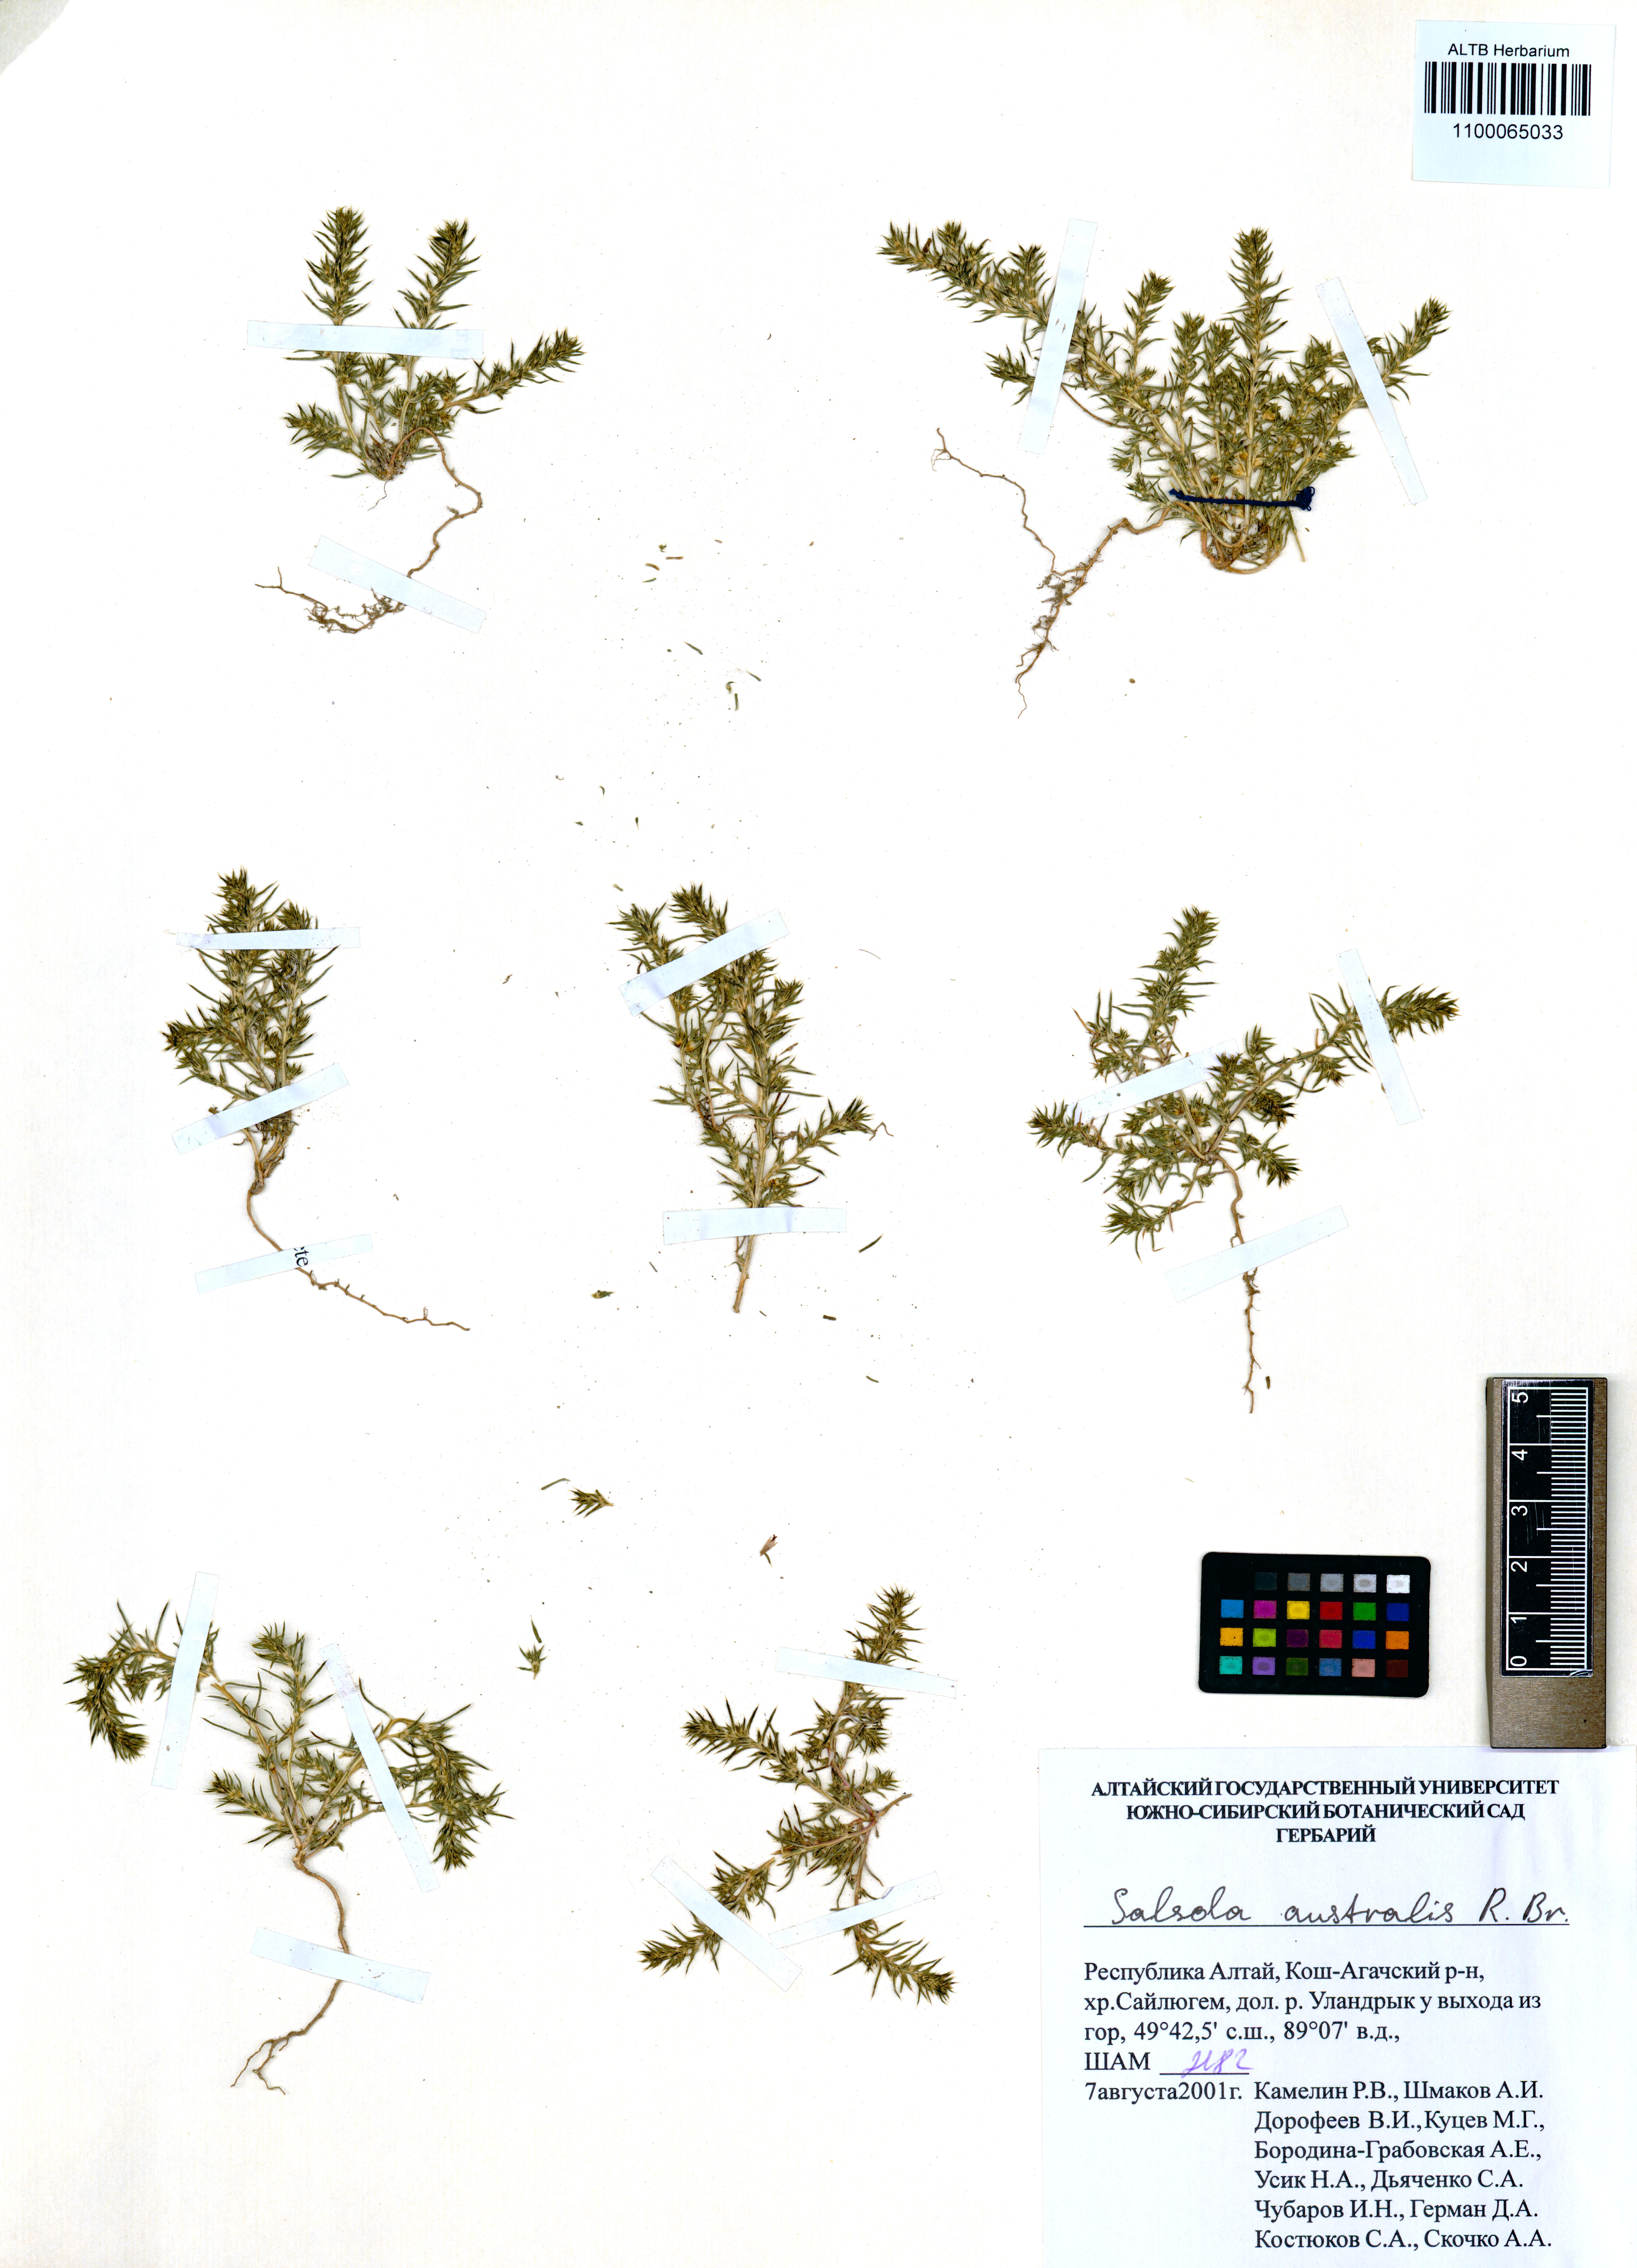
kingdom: Plantae
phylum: Tracheophyta
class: Magnoliopsida
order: Caryophyllales
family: Amaranthaceae
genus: Salsola
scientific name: Salsola australis
